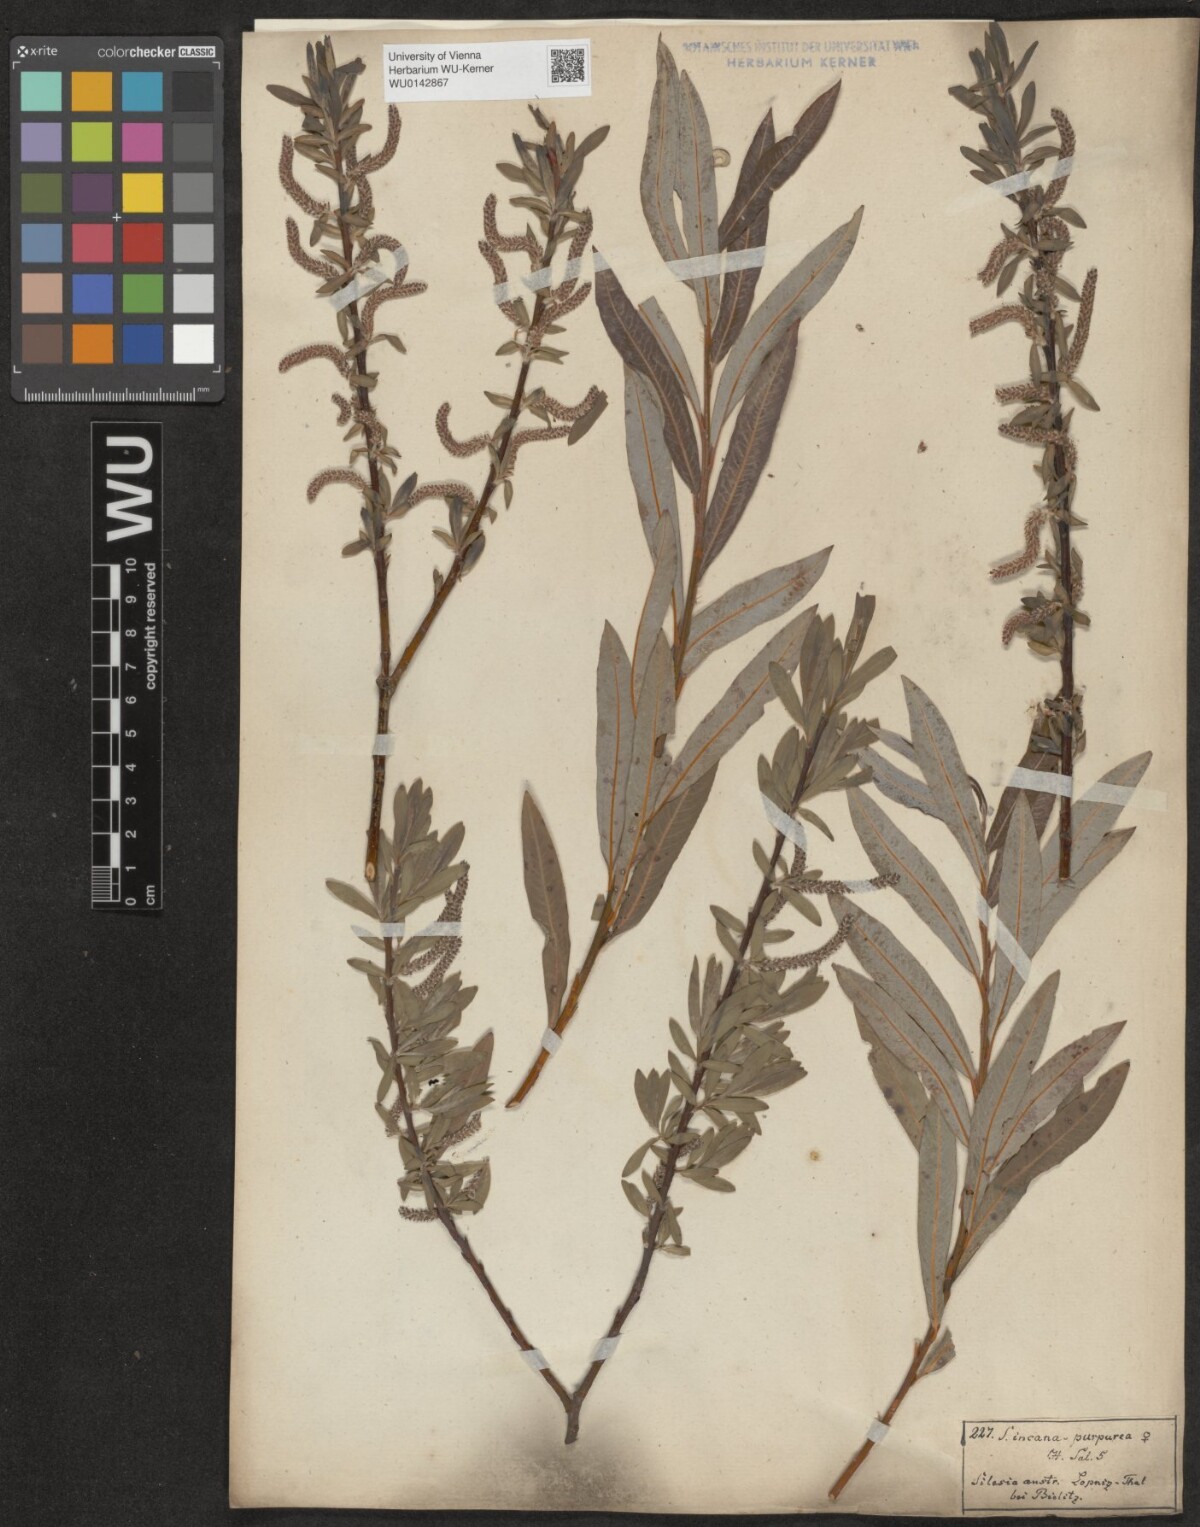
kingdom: Plantae
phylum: Tracheophyta
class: Magnoliopsida
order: Malpighiales
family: Salicaceae
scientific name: Salicaceae
